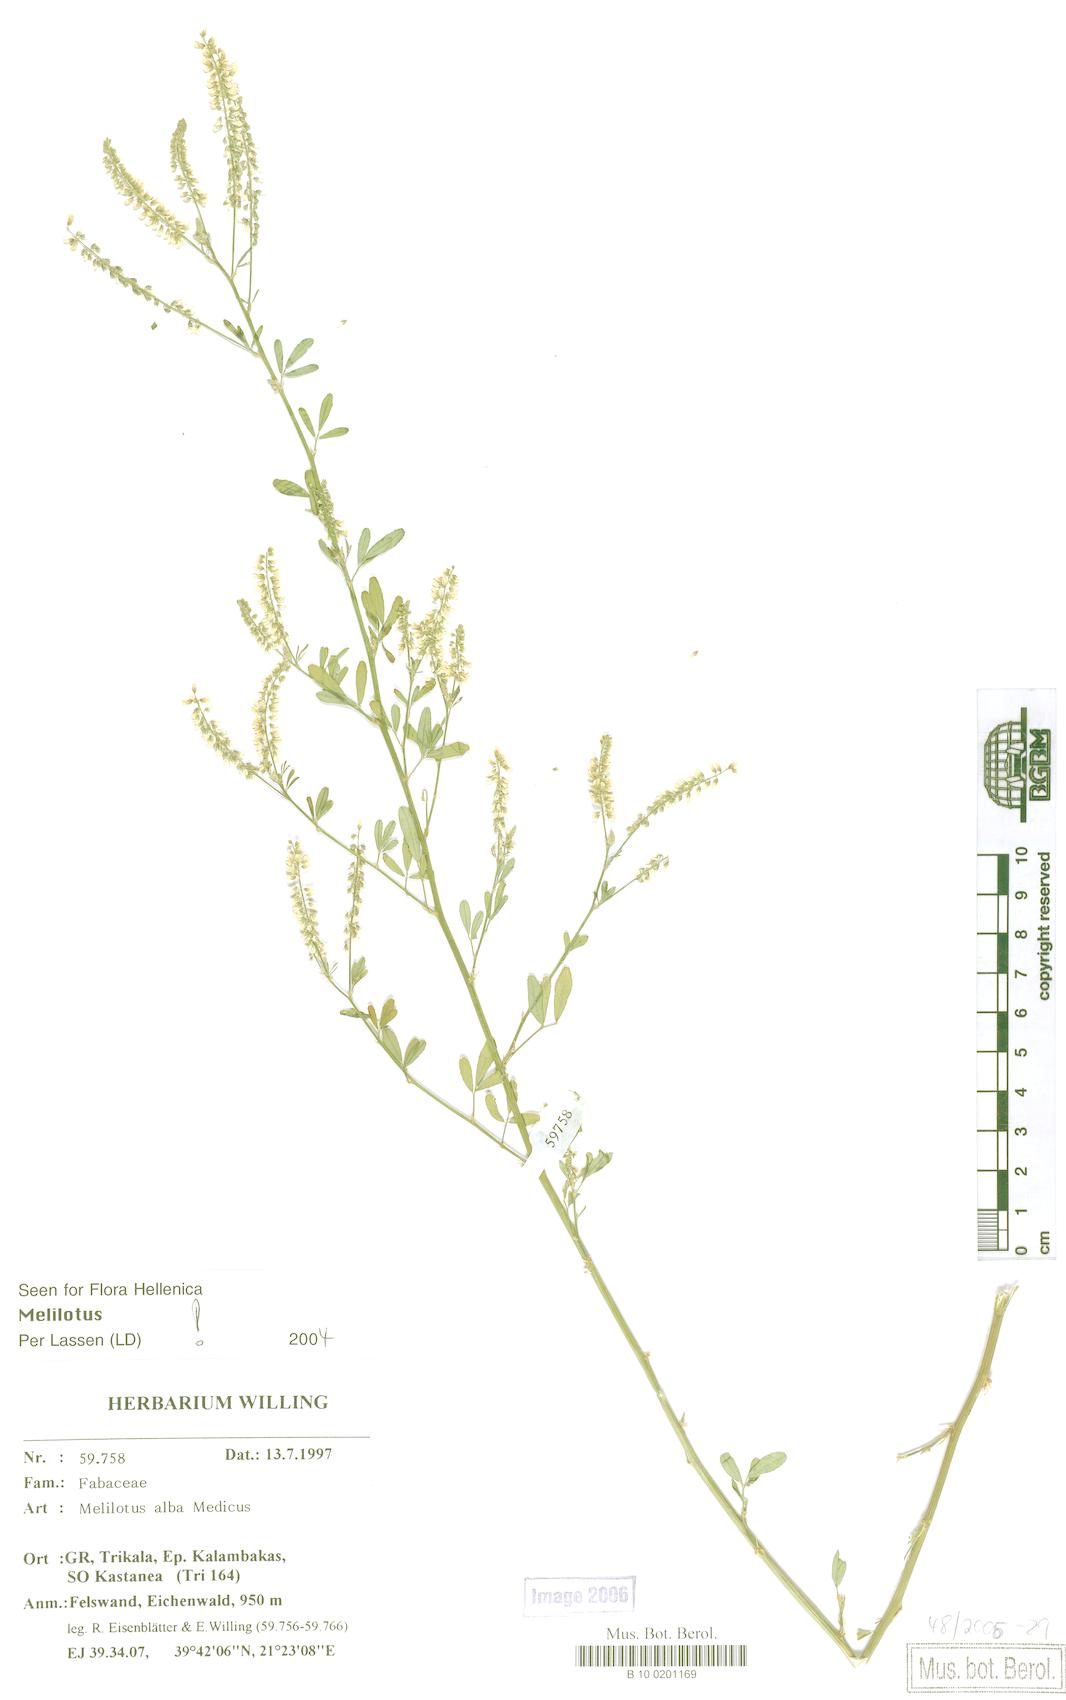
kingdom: Plantae
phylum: Tracheophyta
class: Magnoliopsida
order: Fabales
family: Fabaceae
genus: Melilotus
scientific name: Melilotus albus
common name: White melilot
